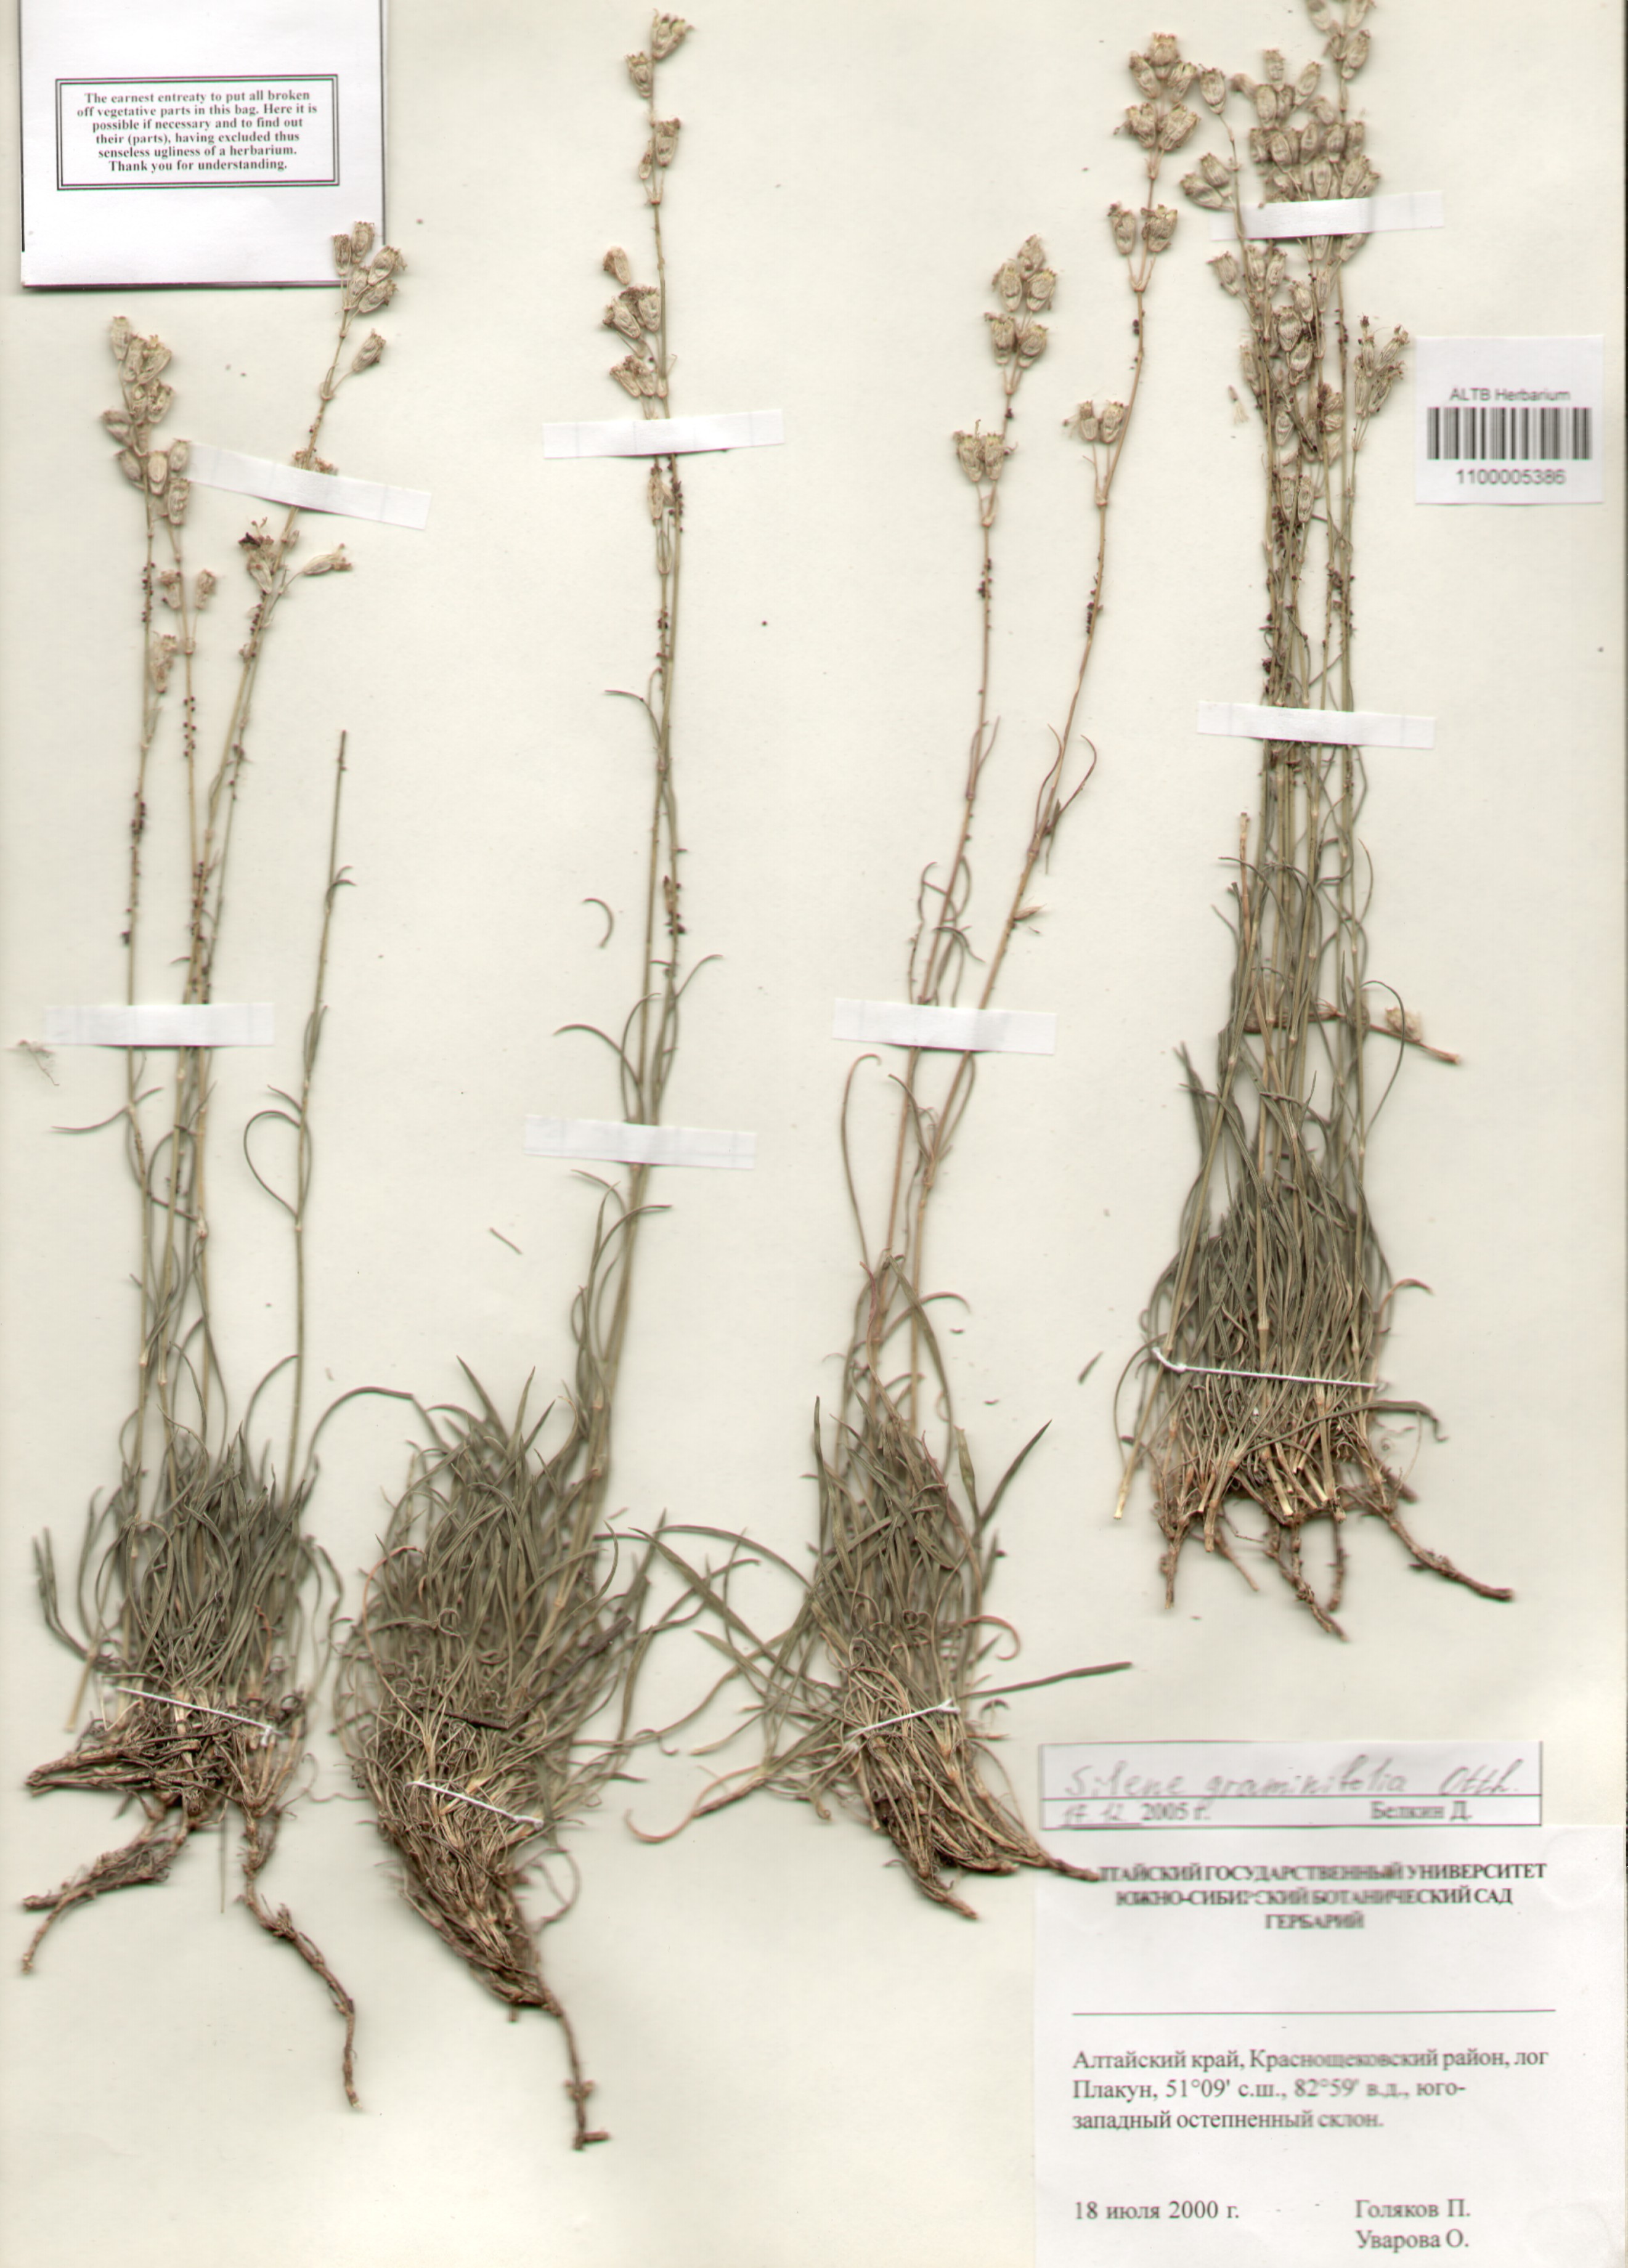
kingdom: Plantae
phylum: Tracheophyta
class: Magnoliopsida
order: Caryophyllales
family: Caryophyllaceae
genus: Silene
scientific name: Silene graminifolia
